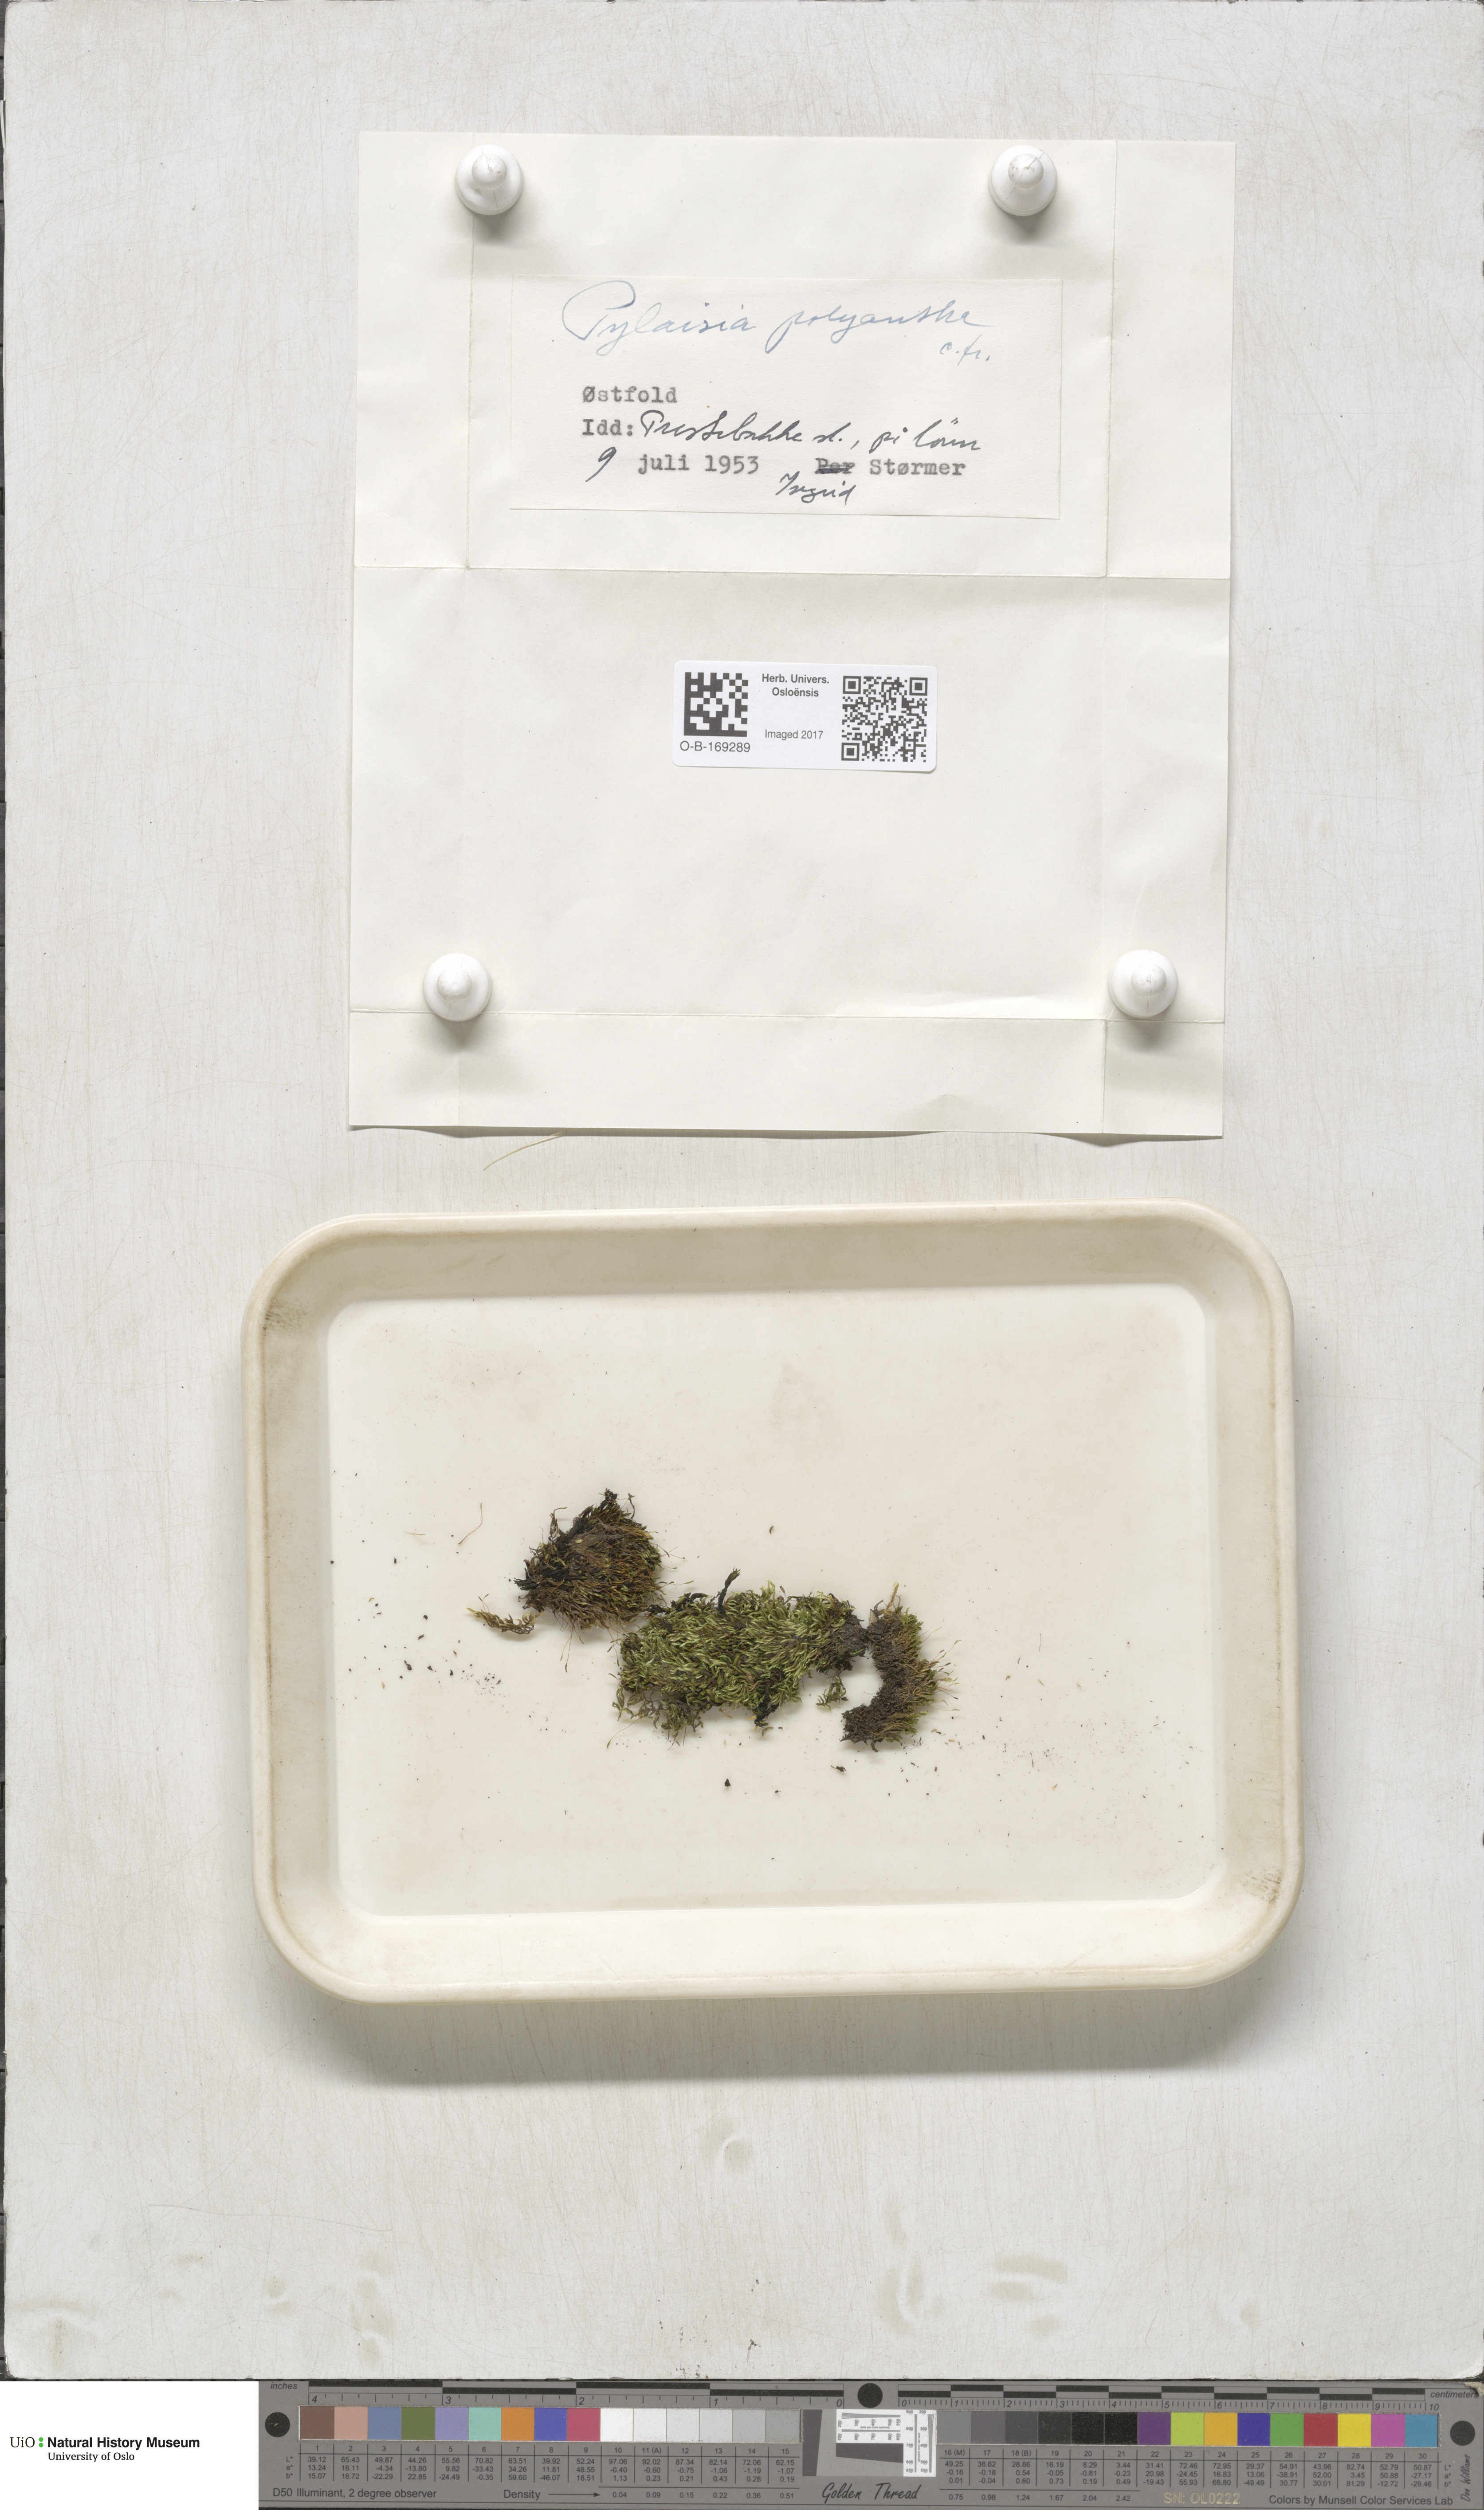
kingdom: Plantae
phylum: Bryophyta
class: Bryopsida
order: Hypnales
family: Pylaisiaceae
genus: Pylaisia
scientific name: Pylaisia polyantha
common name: Many-flowered leskea
